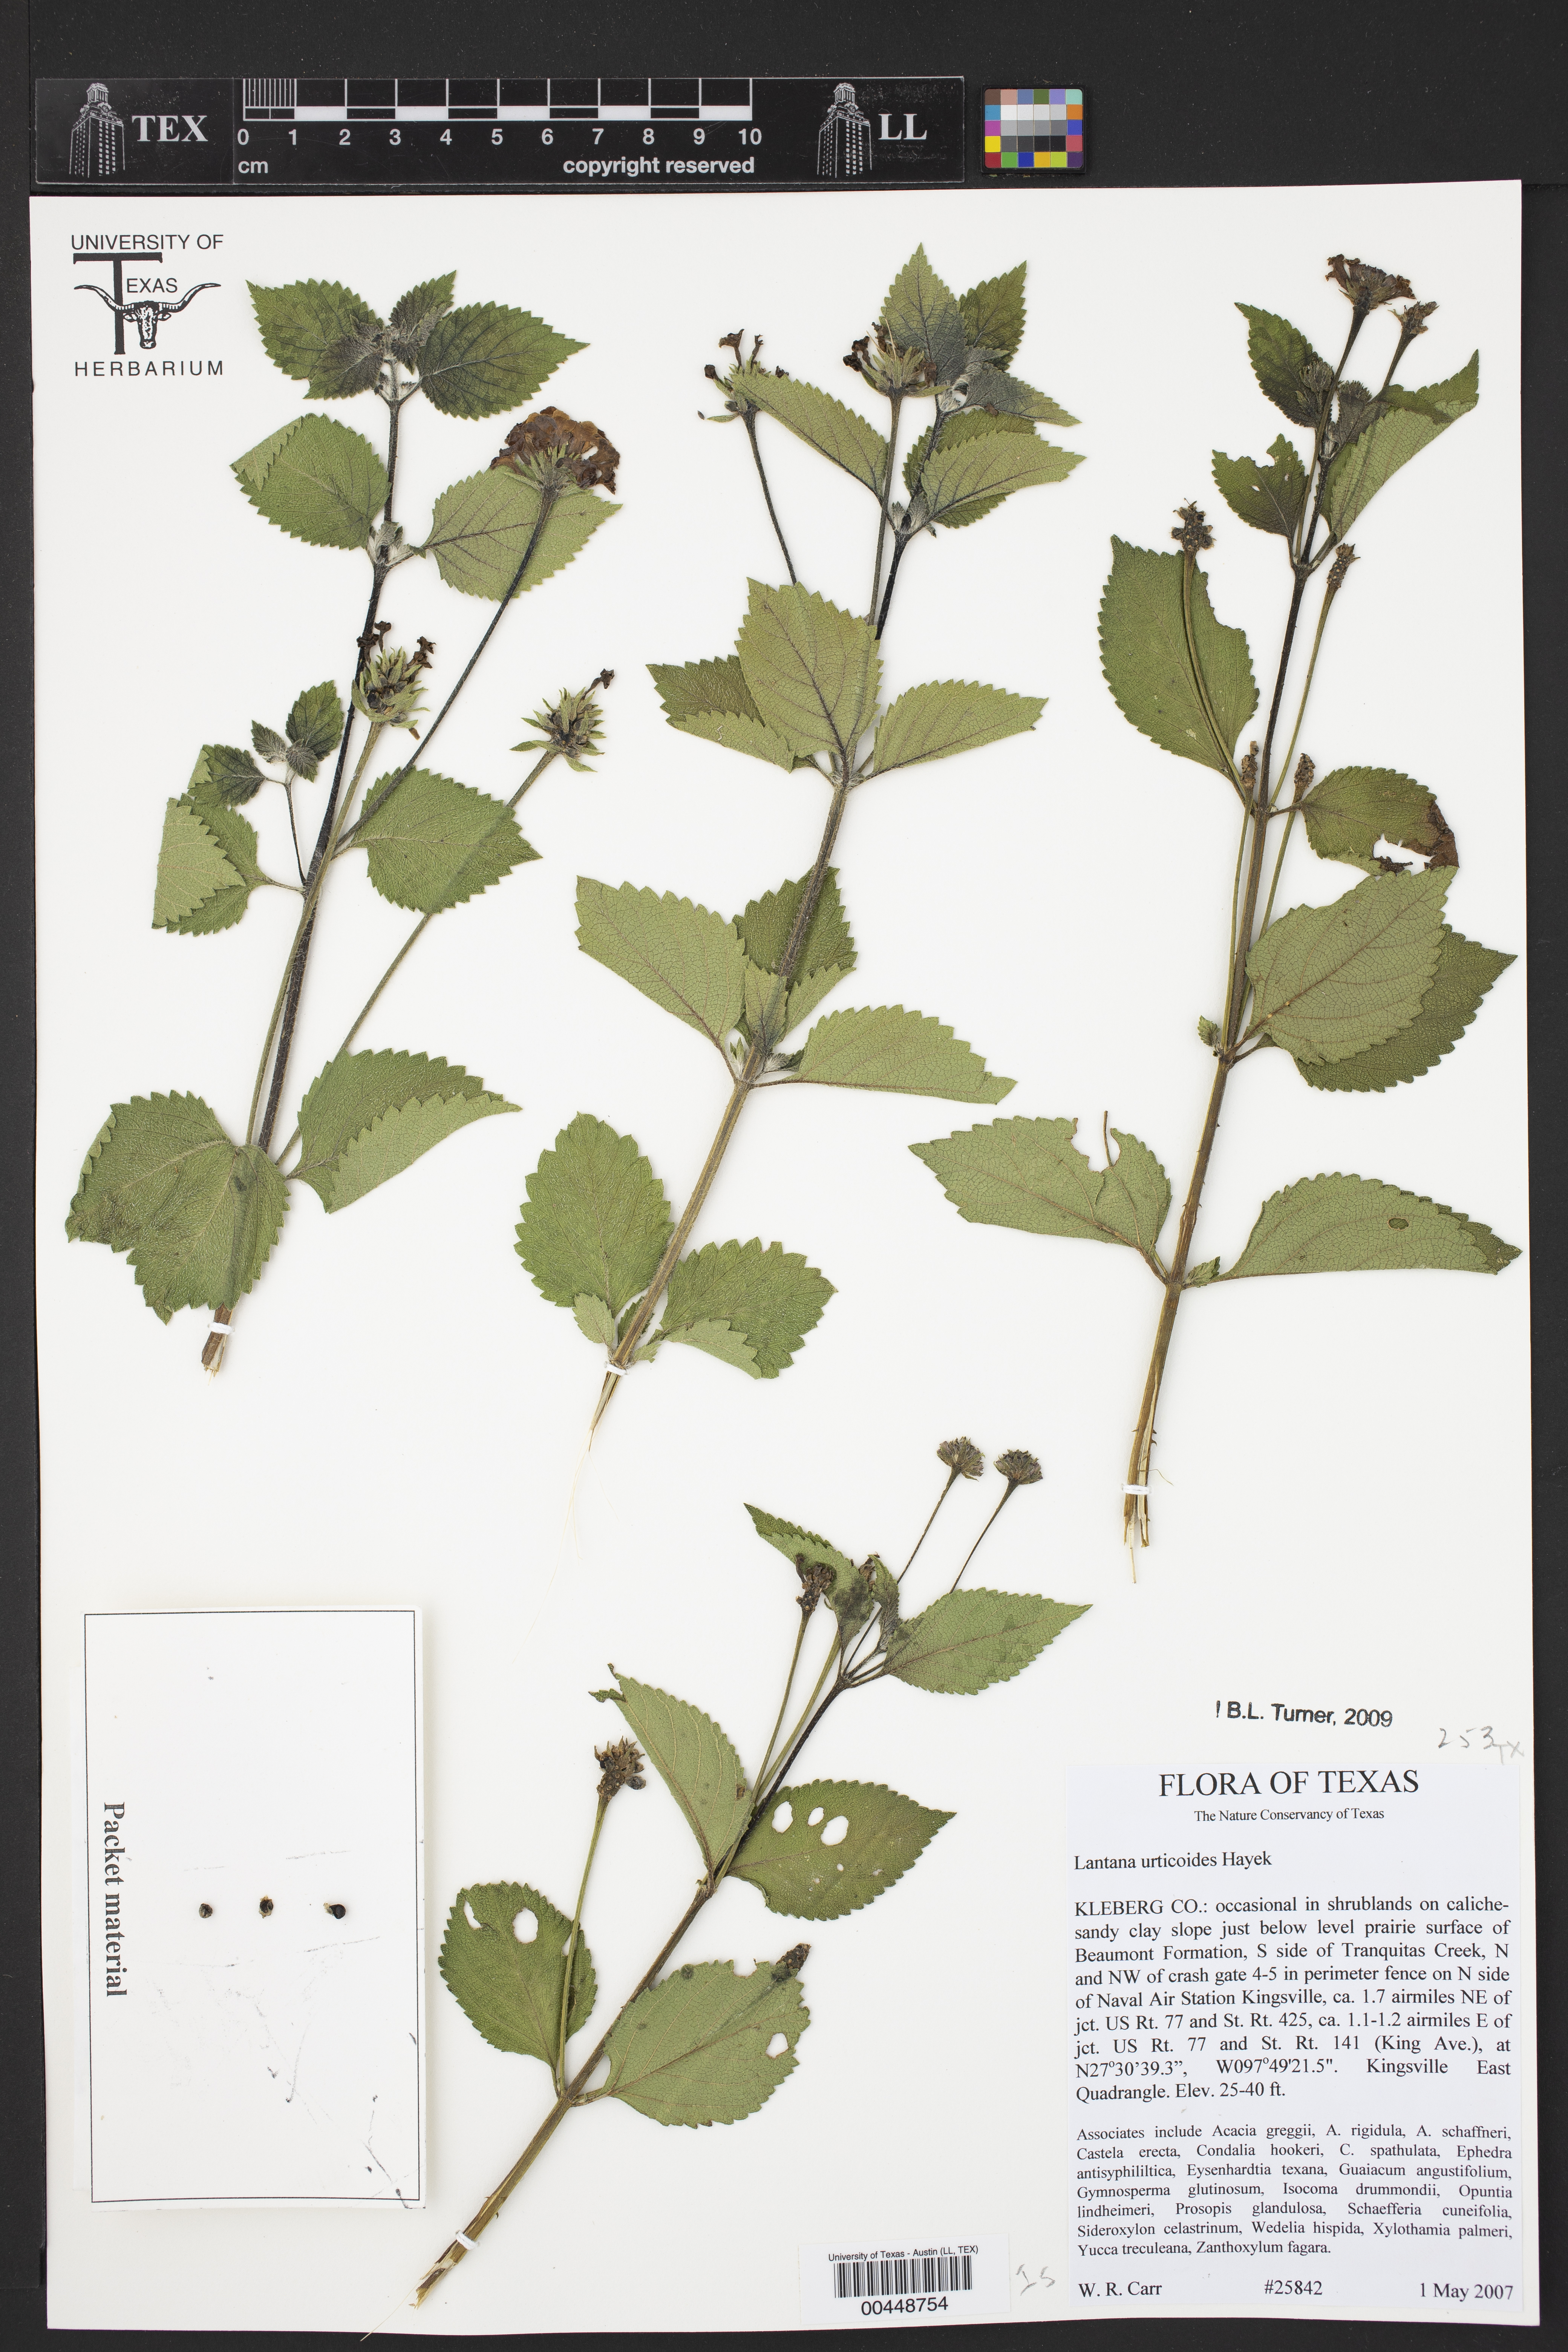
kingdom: Plantae
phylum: Tracheophyta
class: Magnoliopsida
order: Lamiales
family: Verbenaceae
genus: Lantana
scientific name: Lantana urticoides
